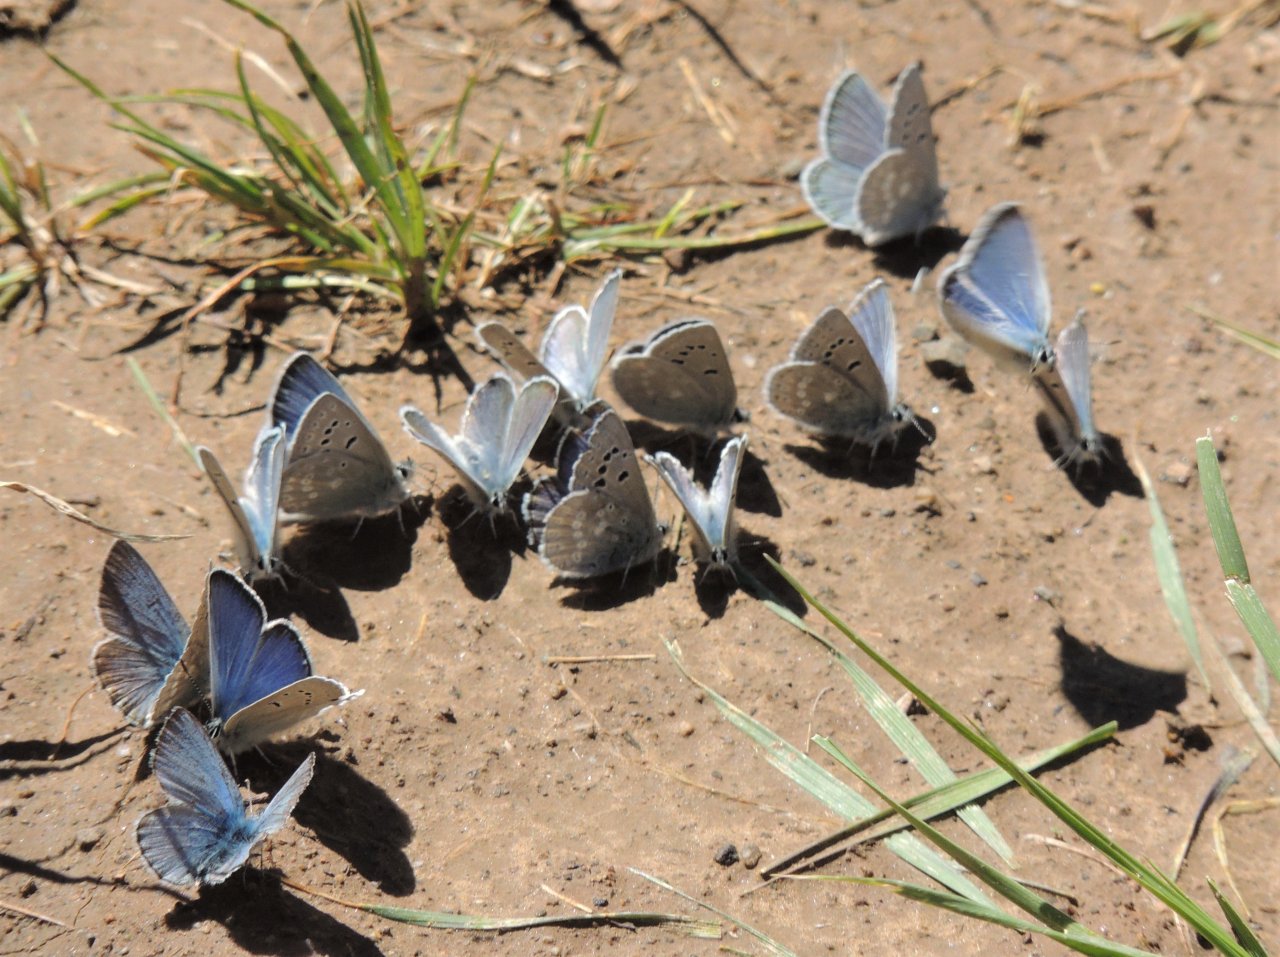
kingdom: Animalia
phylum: Arthropoda
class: Insecta
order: Lepidoptera
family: Lycaenidae
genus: Icaricia
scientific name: Icaricia icarioides
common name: Boisduval's Blue
